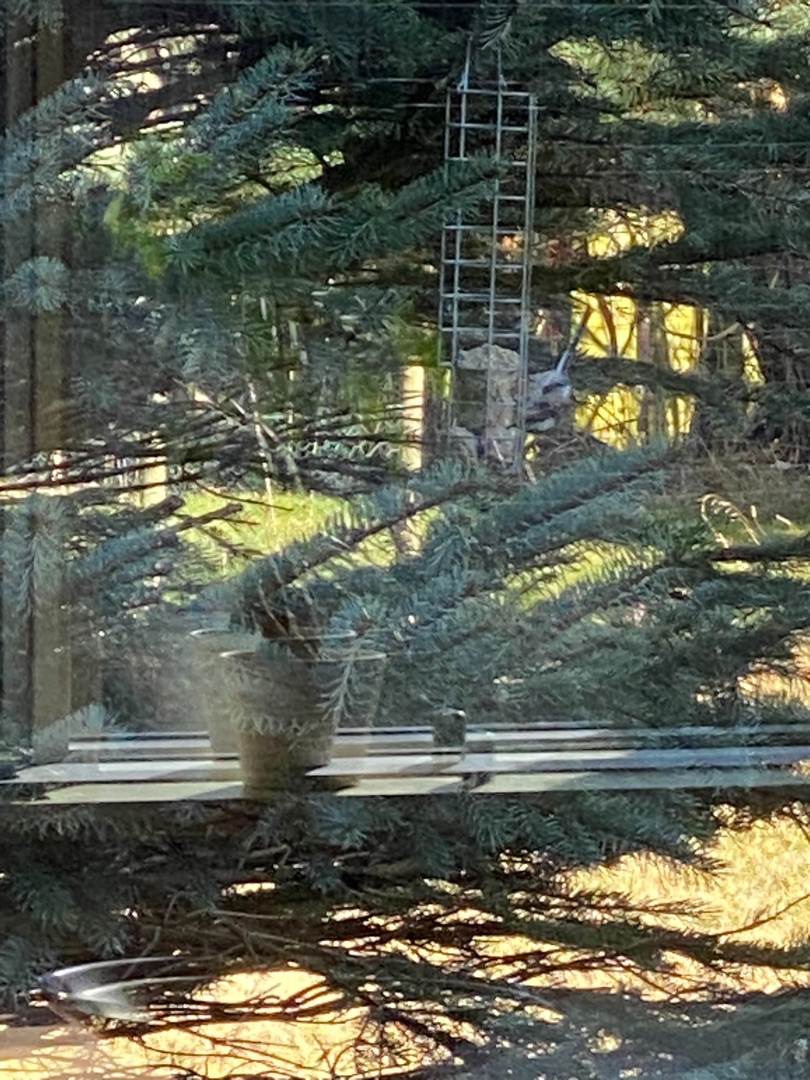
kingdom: Animalia
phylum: Chordata
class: Aves
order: Passeriformes
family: Aegithalidae
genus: Aegithalos
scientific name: Aegithalos caudatus
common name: Sydlig halemejse
